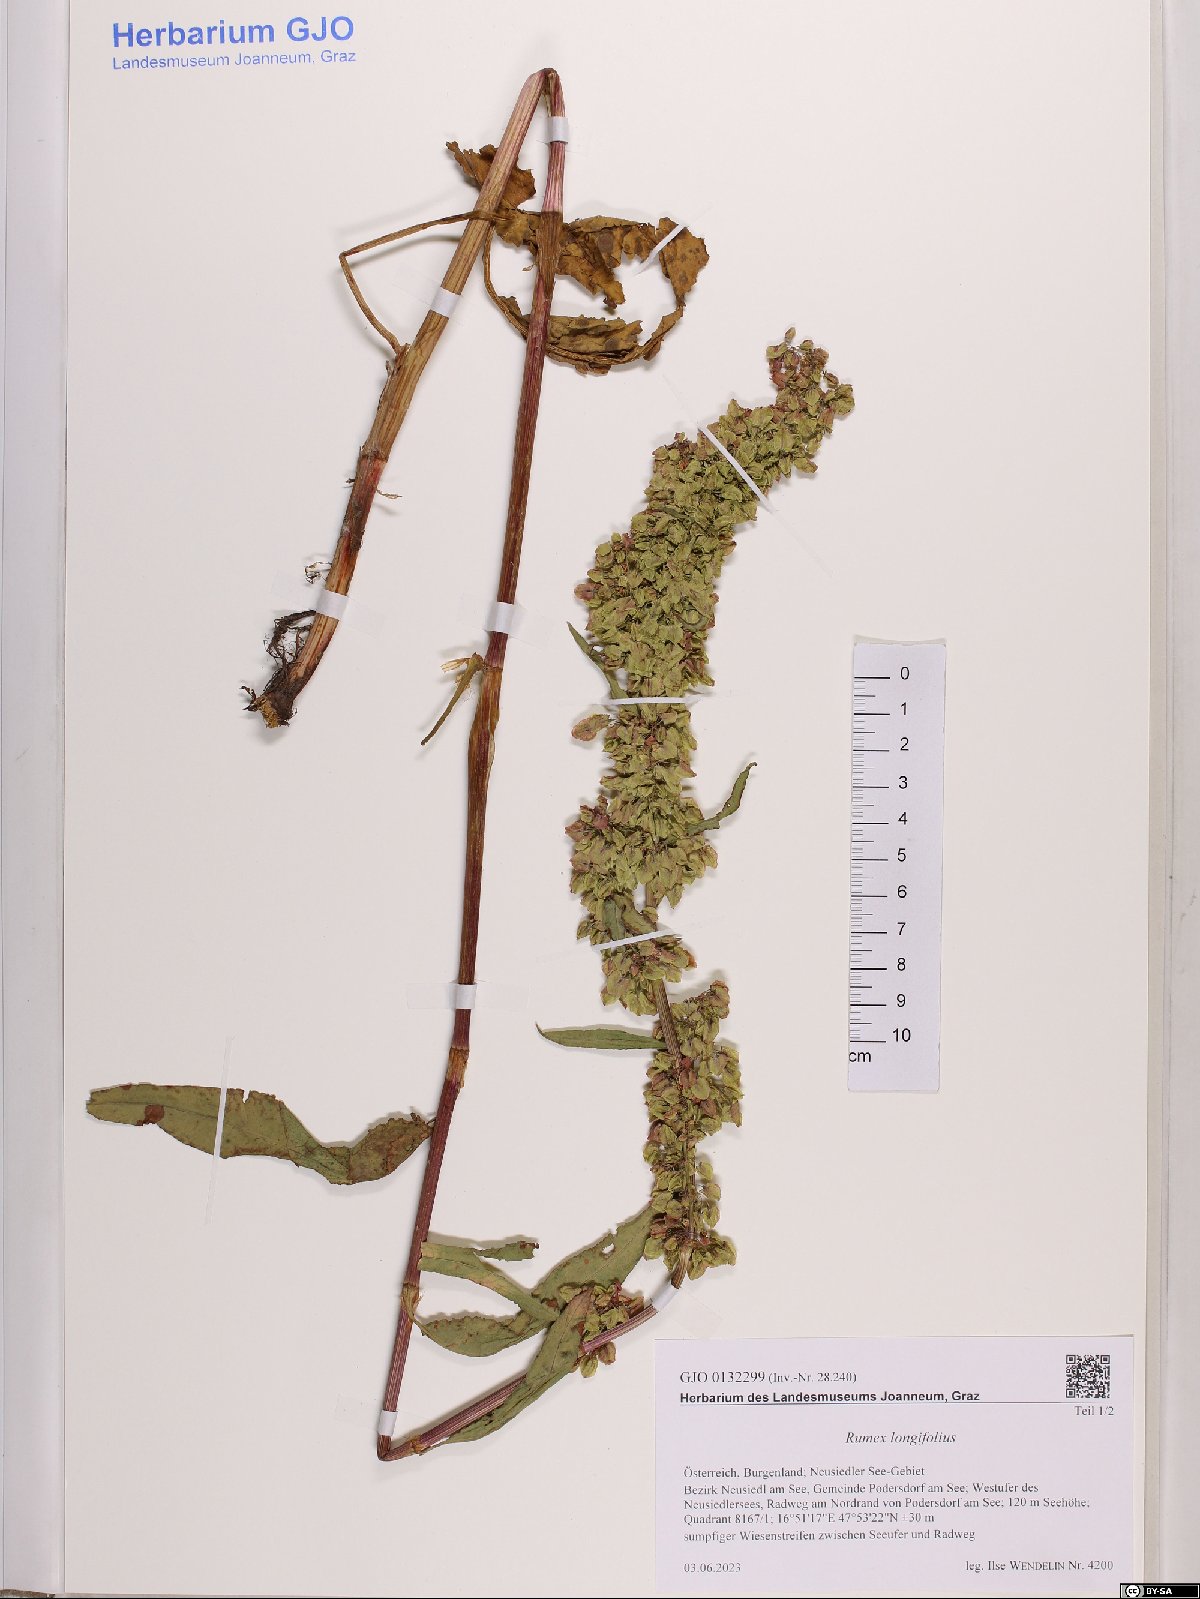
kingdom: Plantae
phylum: Tracheophyta
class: Magnoliopsida
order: Caryophyllales
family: Polygonaceae
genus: Rumex
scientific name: Rumex longifolius
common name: Dooryard dock
